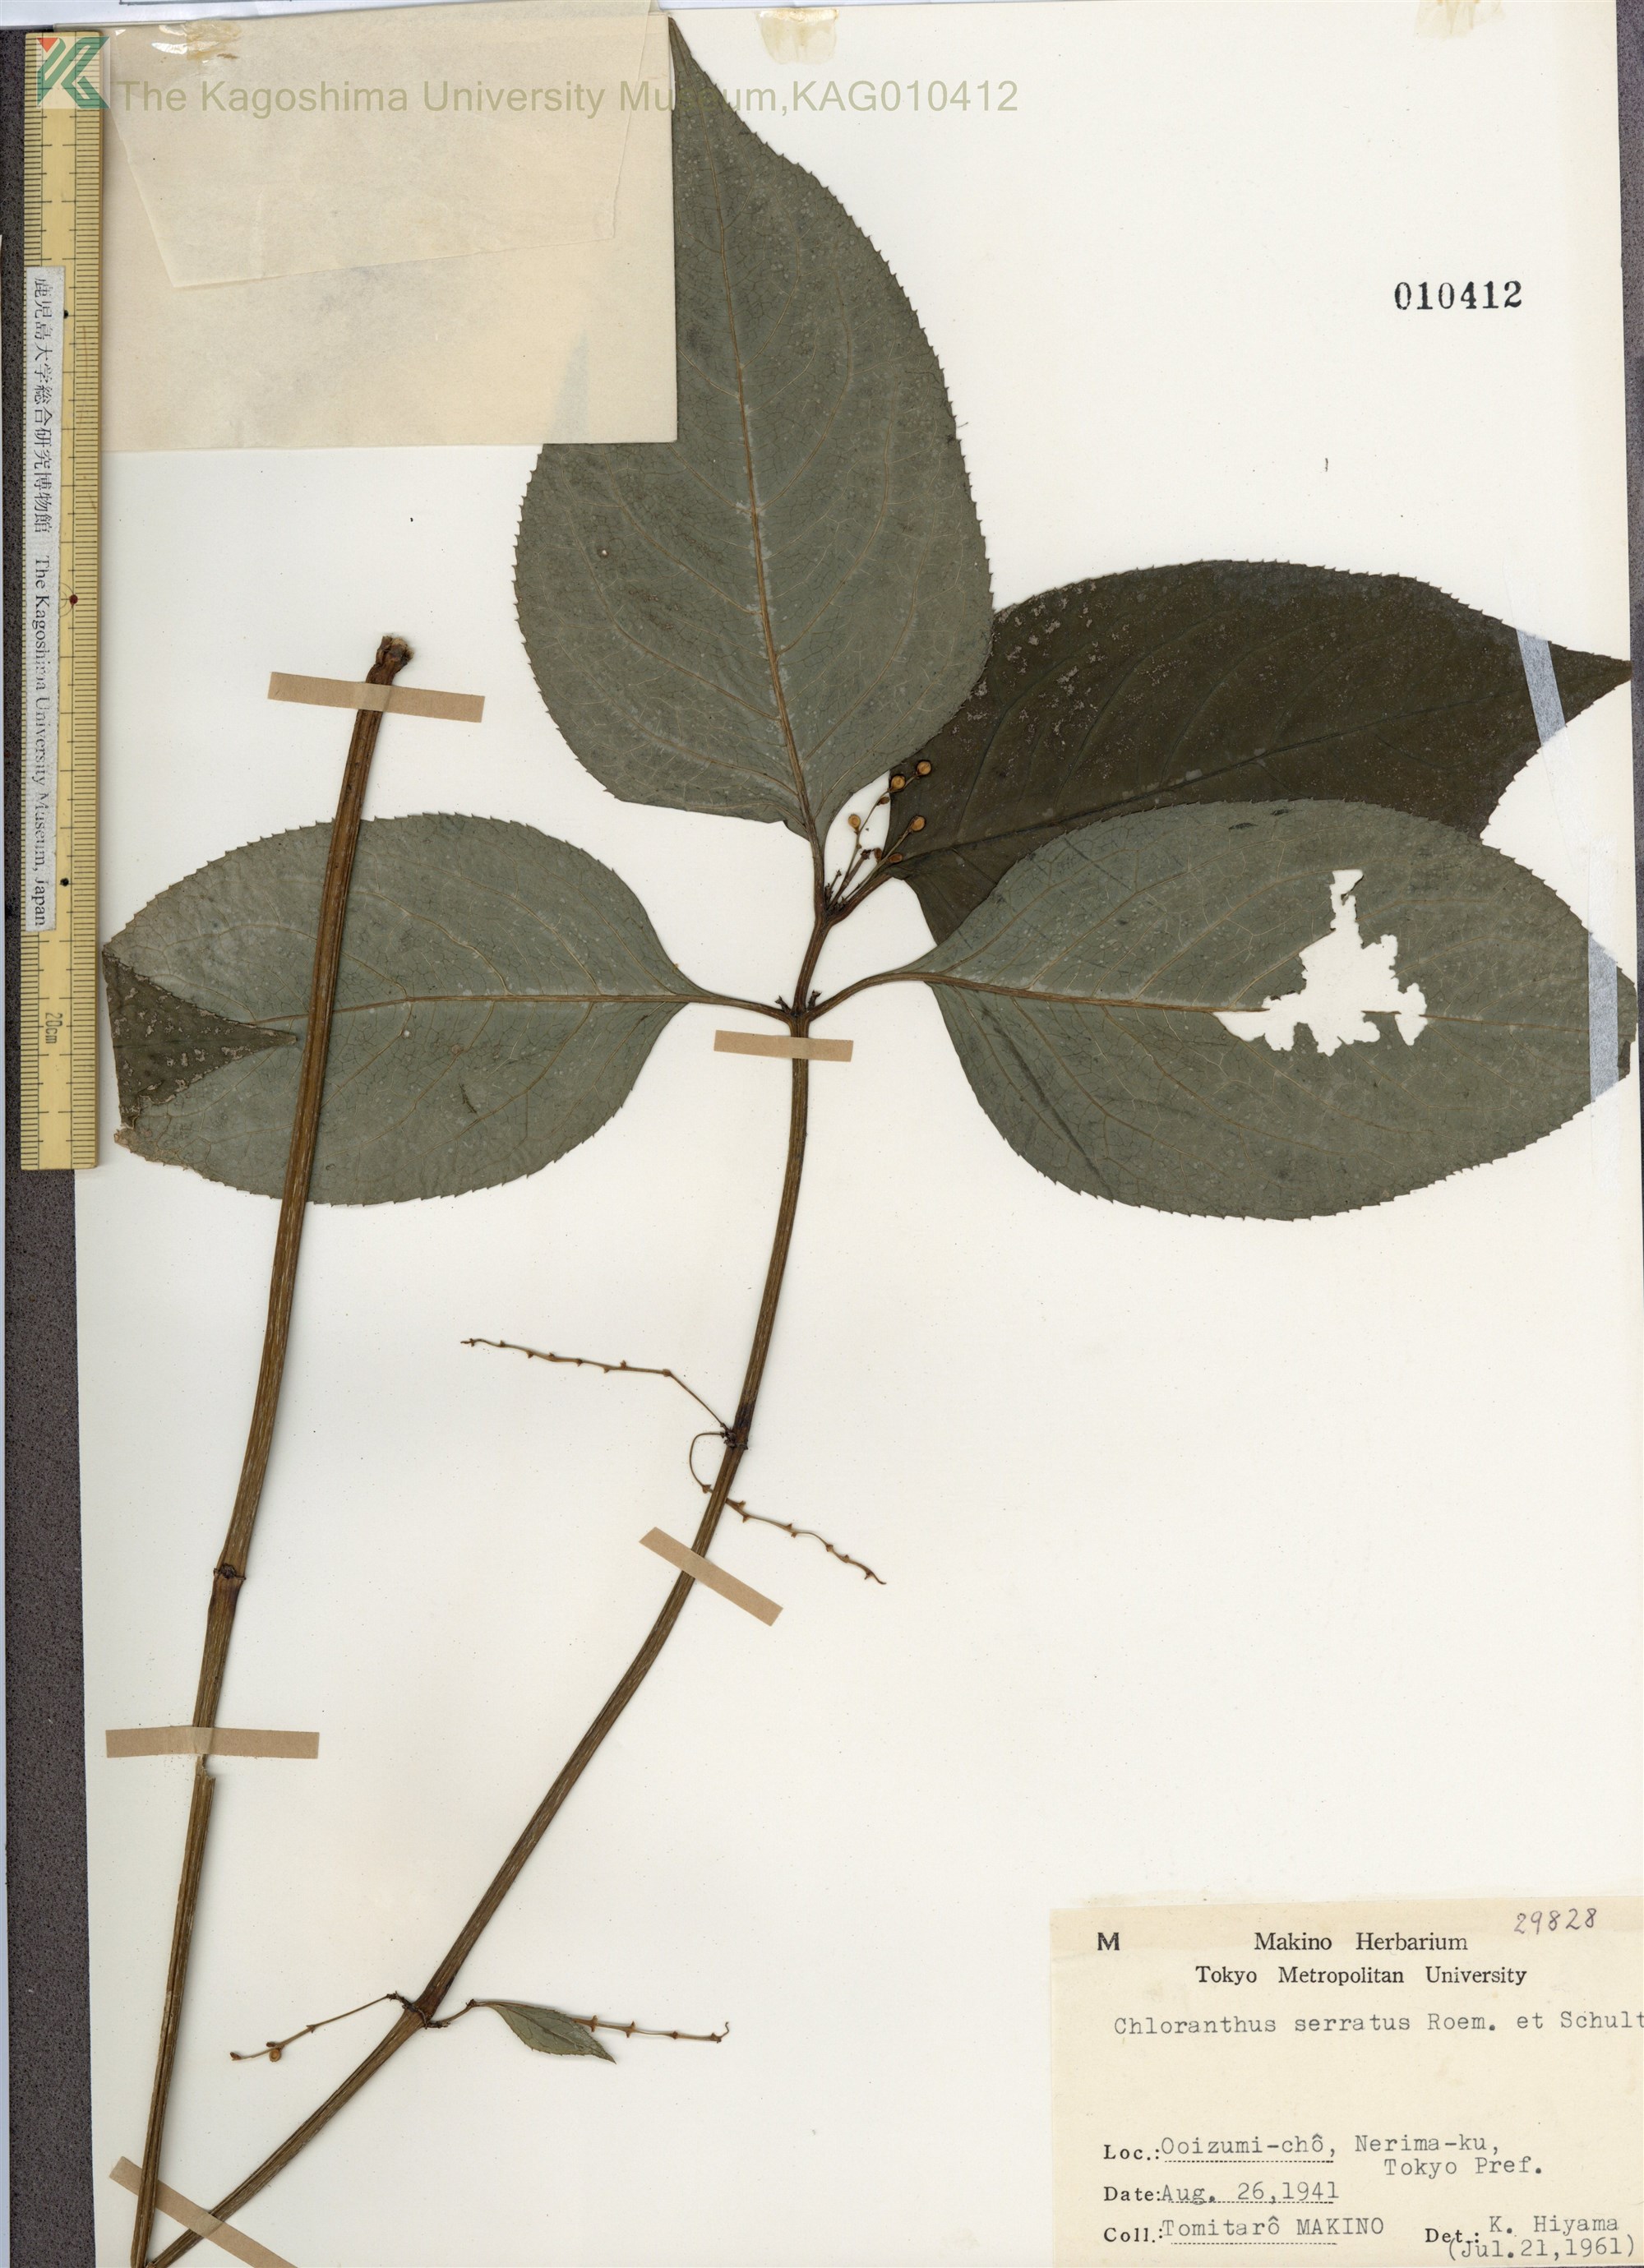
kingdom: Plantae
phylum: Tracheophyta
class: Magnoliopsida
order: Chloranthales
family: Chloranthaceae
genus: Chloranthus
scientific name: Chloranthus serratus
